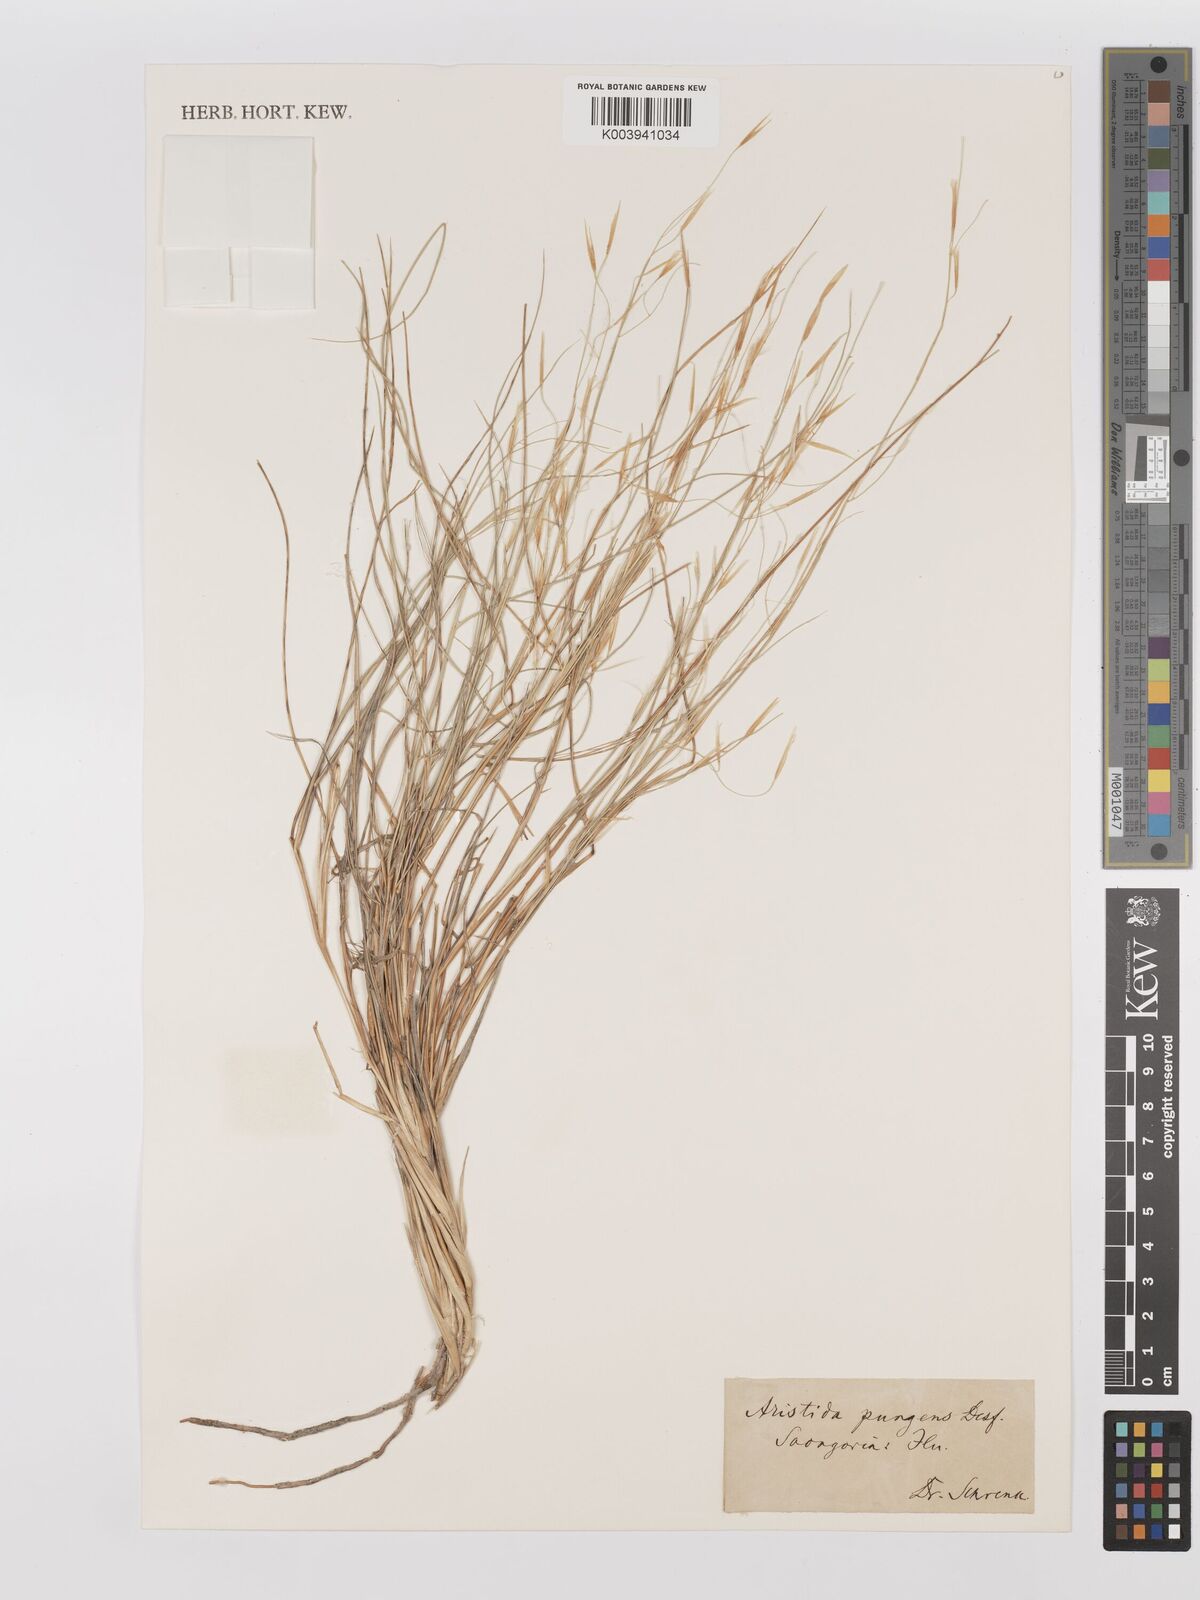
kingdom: Plantae
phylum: Tracheophyta
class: Liliopsida
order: Poales
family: Poaceae
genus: Stipagrostis
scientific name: Stipagrostis pungens
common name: Three-awn grass
